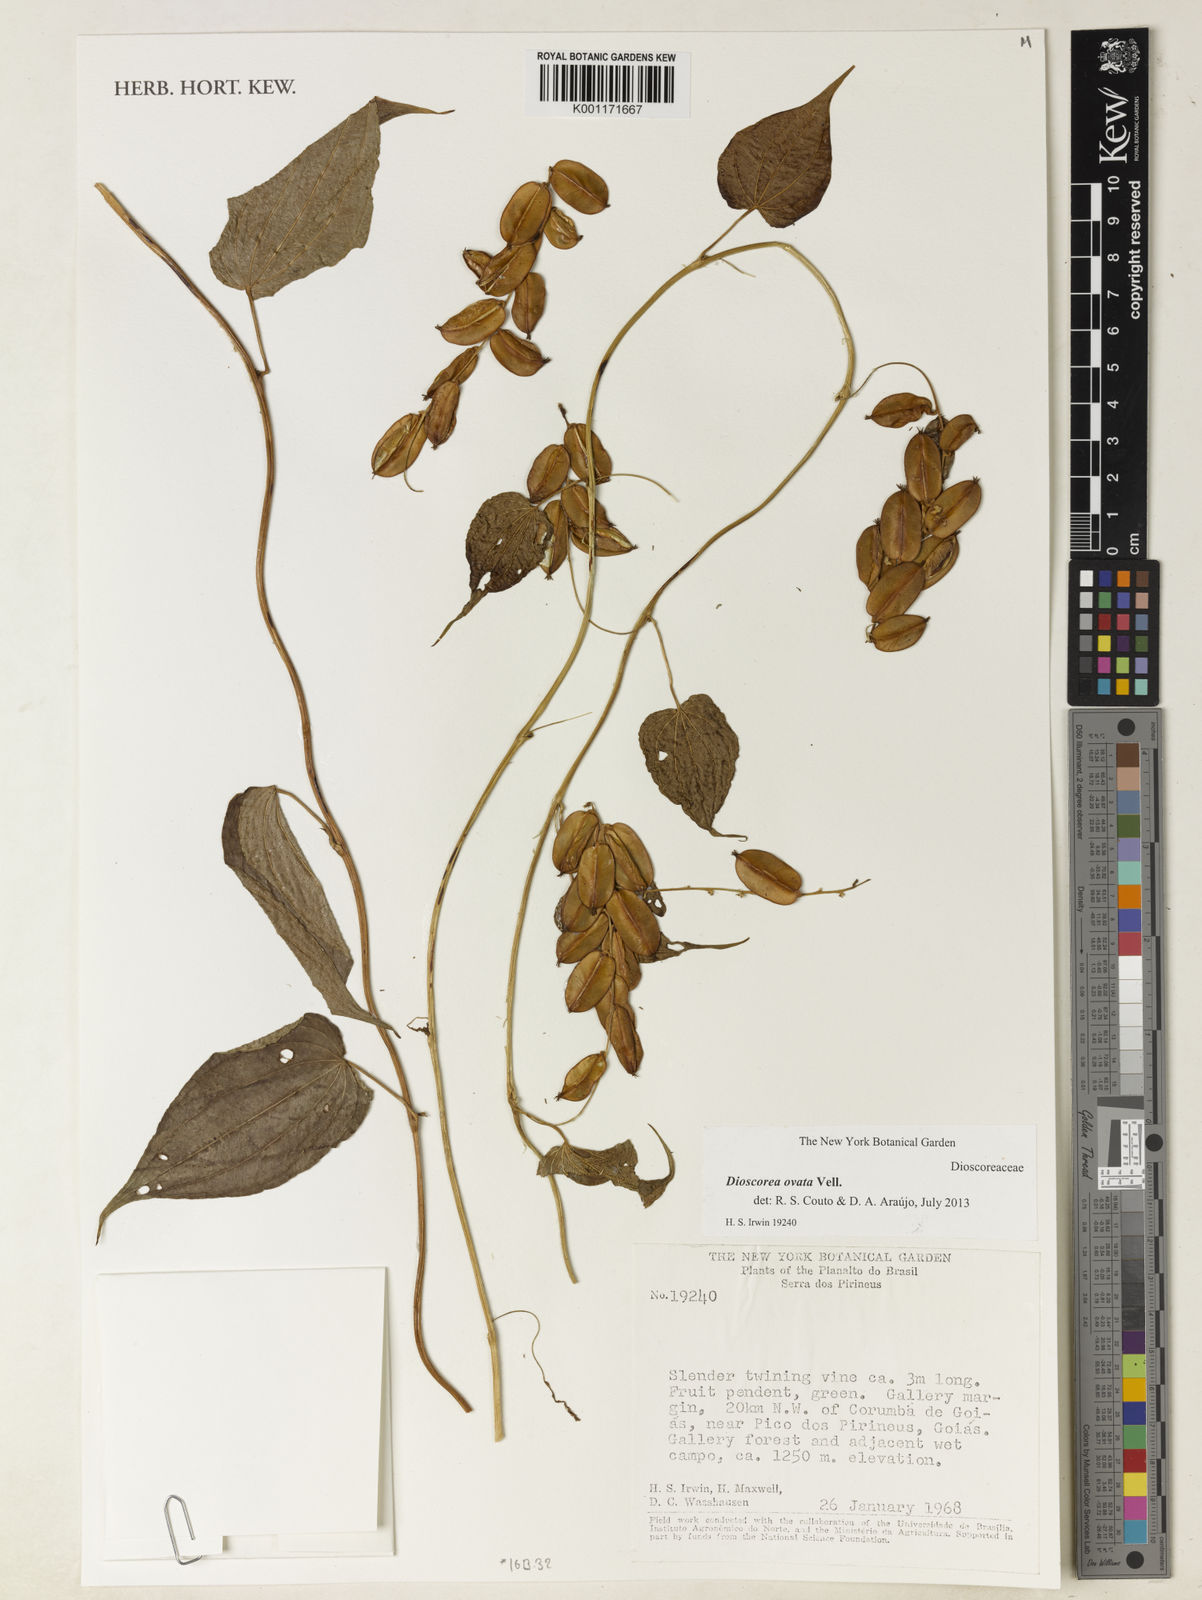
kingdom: Plantae
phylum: Tracheophyta
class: Liliopsida
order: Dioscoreales
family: Dioscoreaceae
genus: Dioscorea
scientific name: Dioscorea ovata
